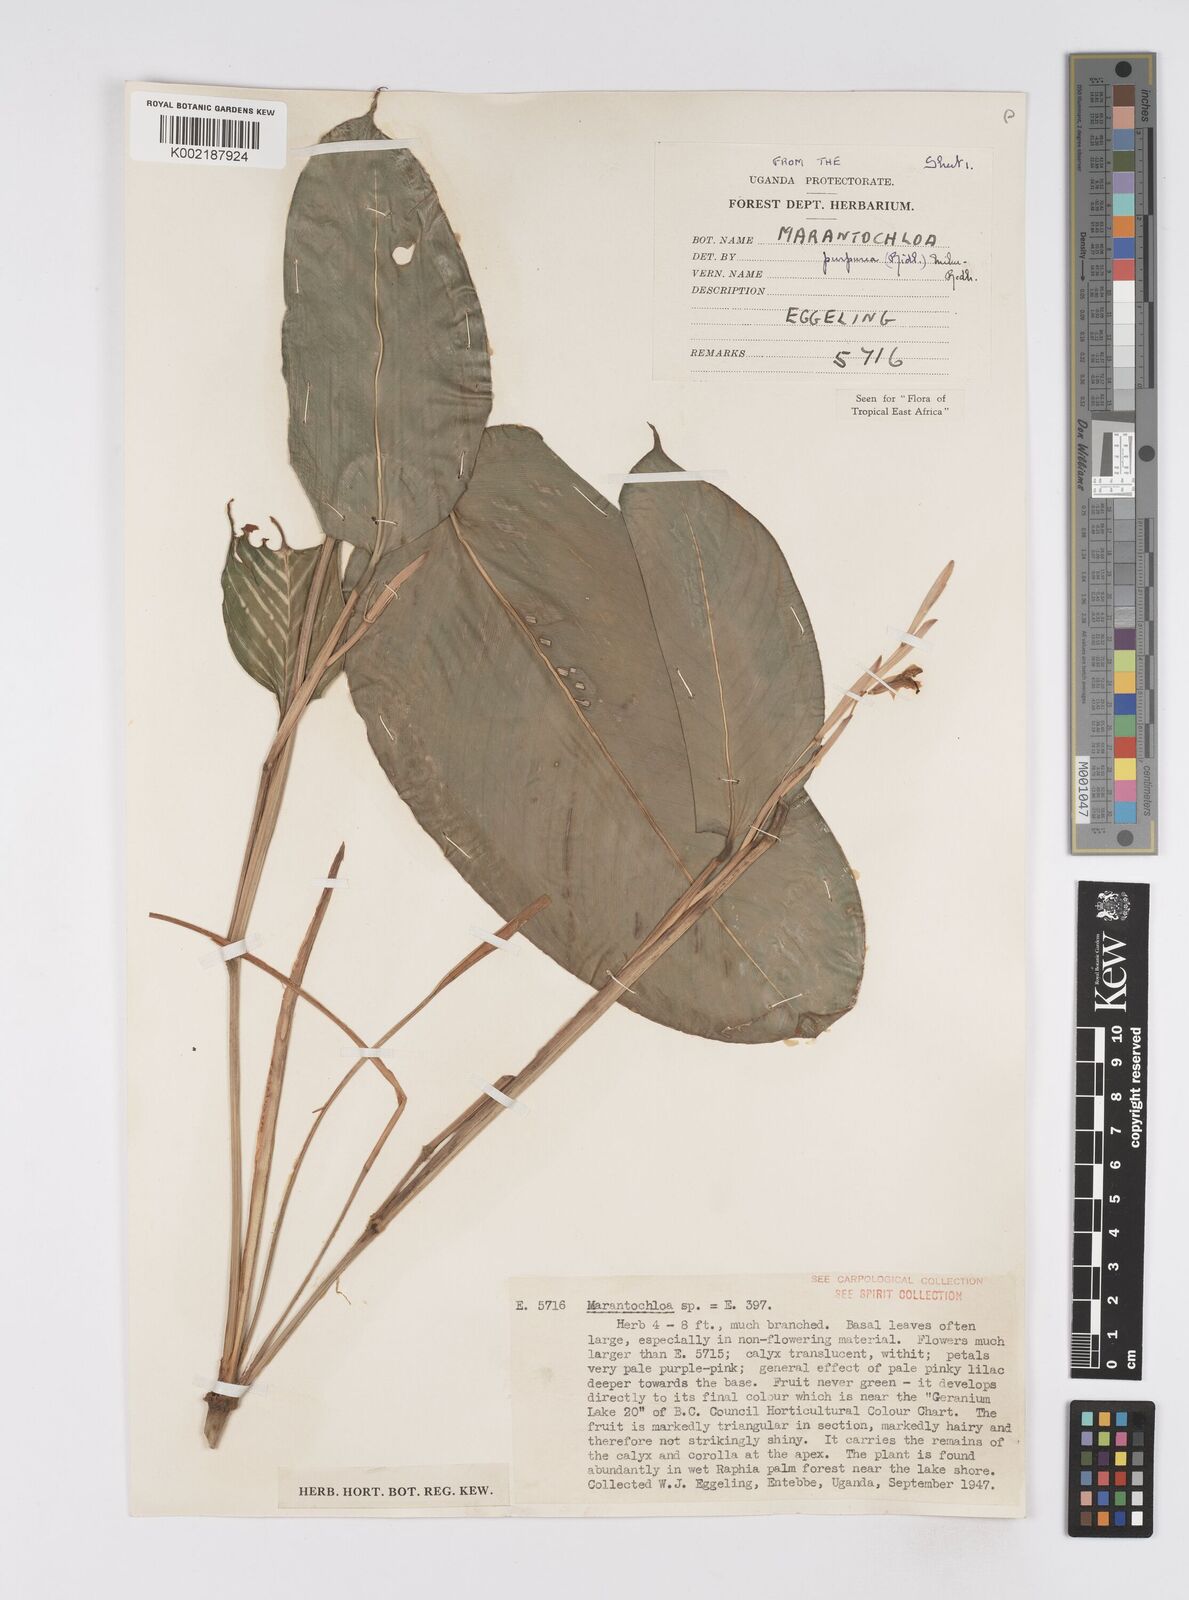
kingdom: Plantae
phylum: Tracheophyta
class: Liliopsida
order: Zingiberales
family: Marantaceae
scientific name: Marantaceae
